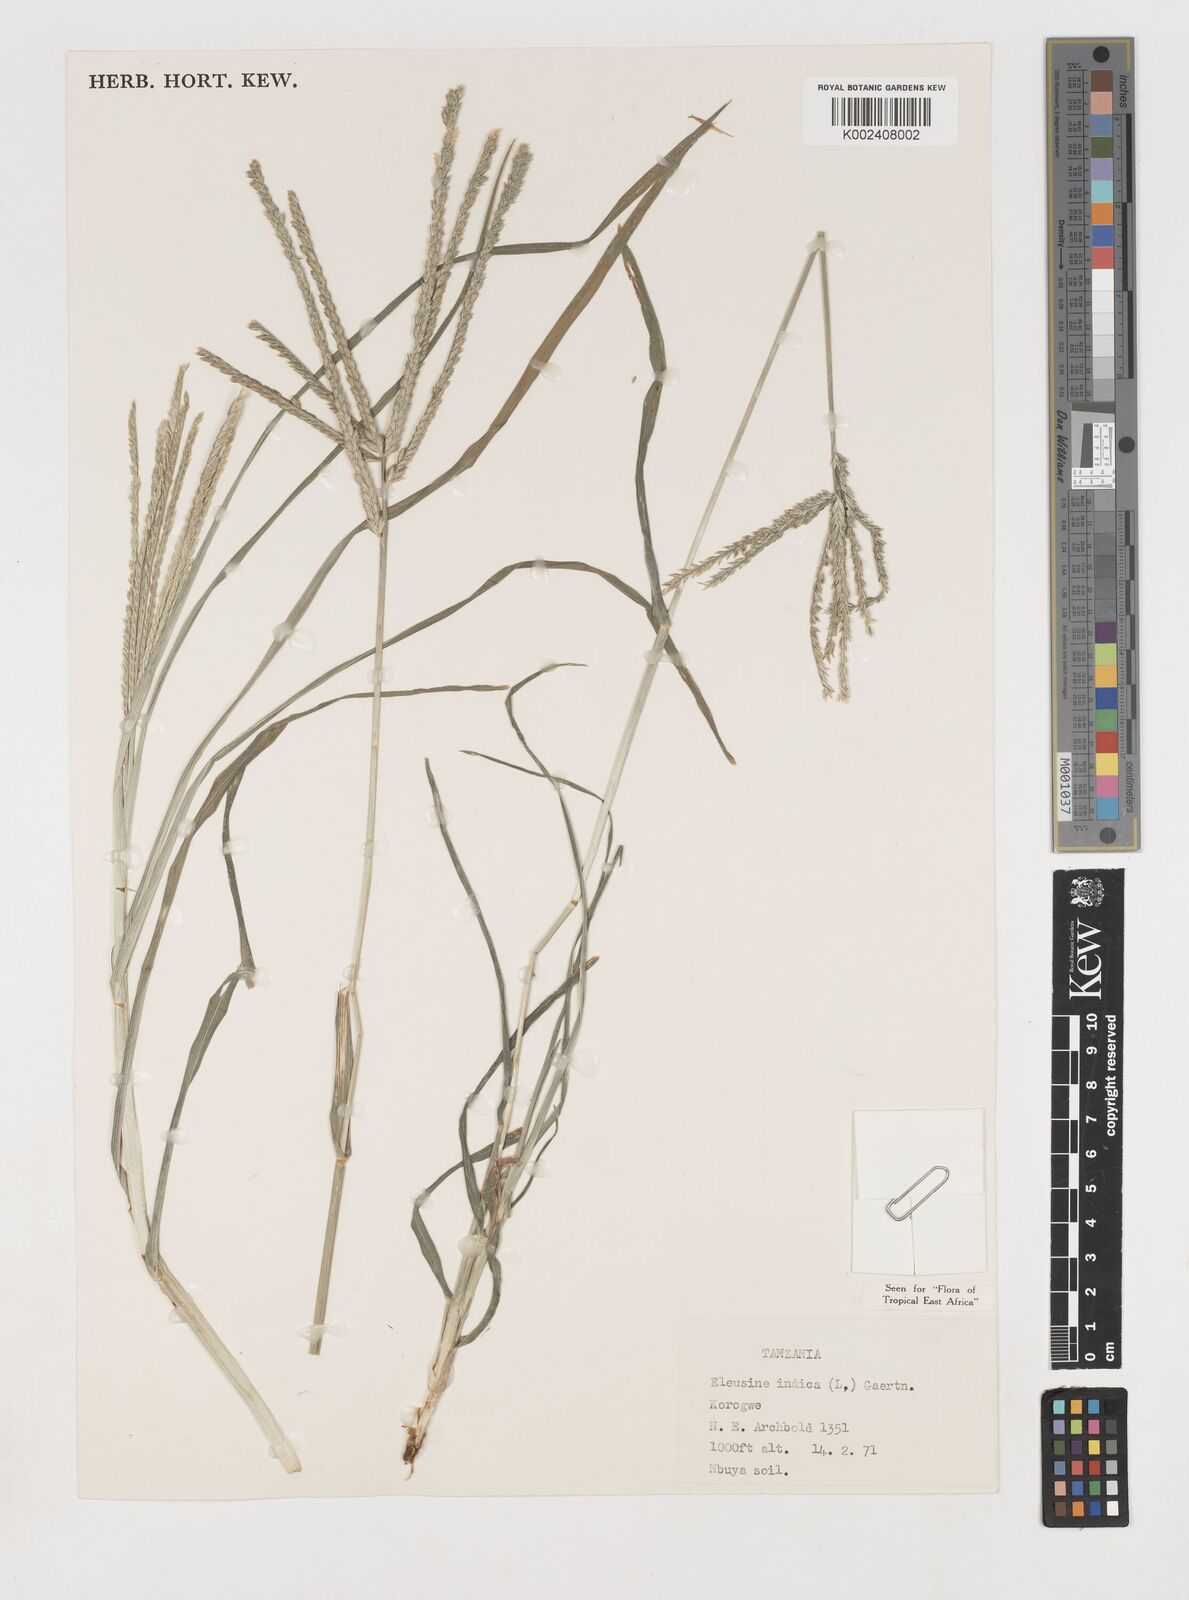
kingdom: Plantae
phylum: Tracheophyta
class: Liliopsida
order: Poales
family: Poaceae
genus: Eleusine
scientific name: Eleusine indica
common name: Yard-grass
